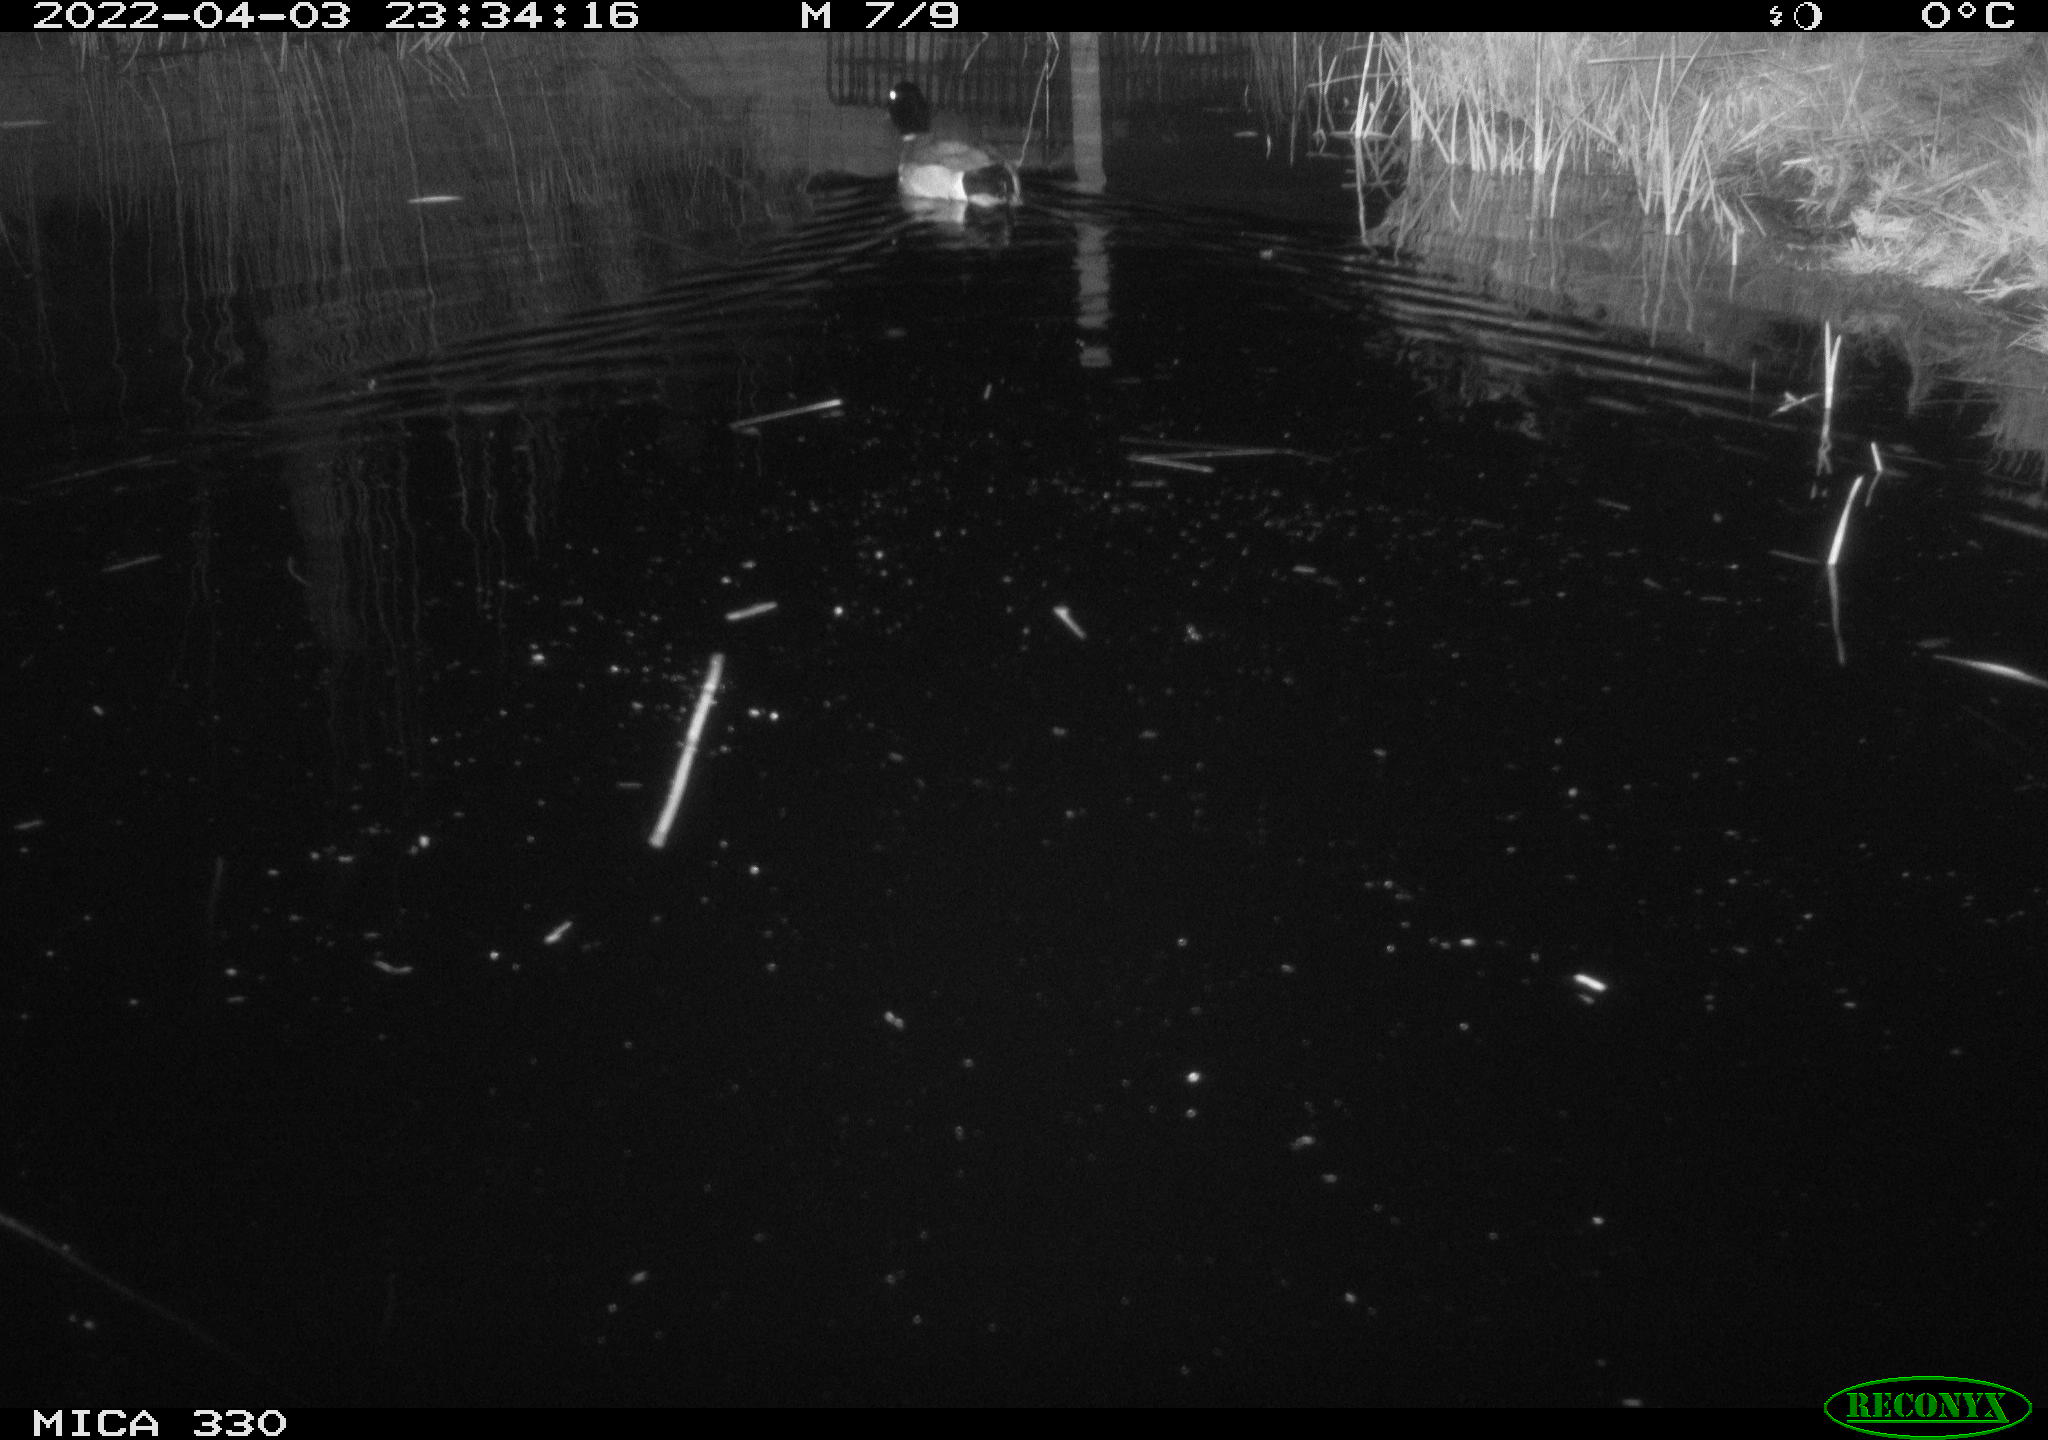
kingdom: Animalia
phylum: Chordata
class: Aves
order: Anseriformes
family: Anatidae
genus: Anas
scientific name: Anas platyrhynchos
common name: Mallard
